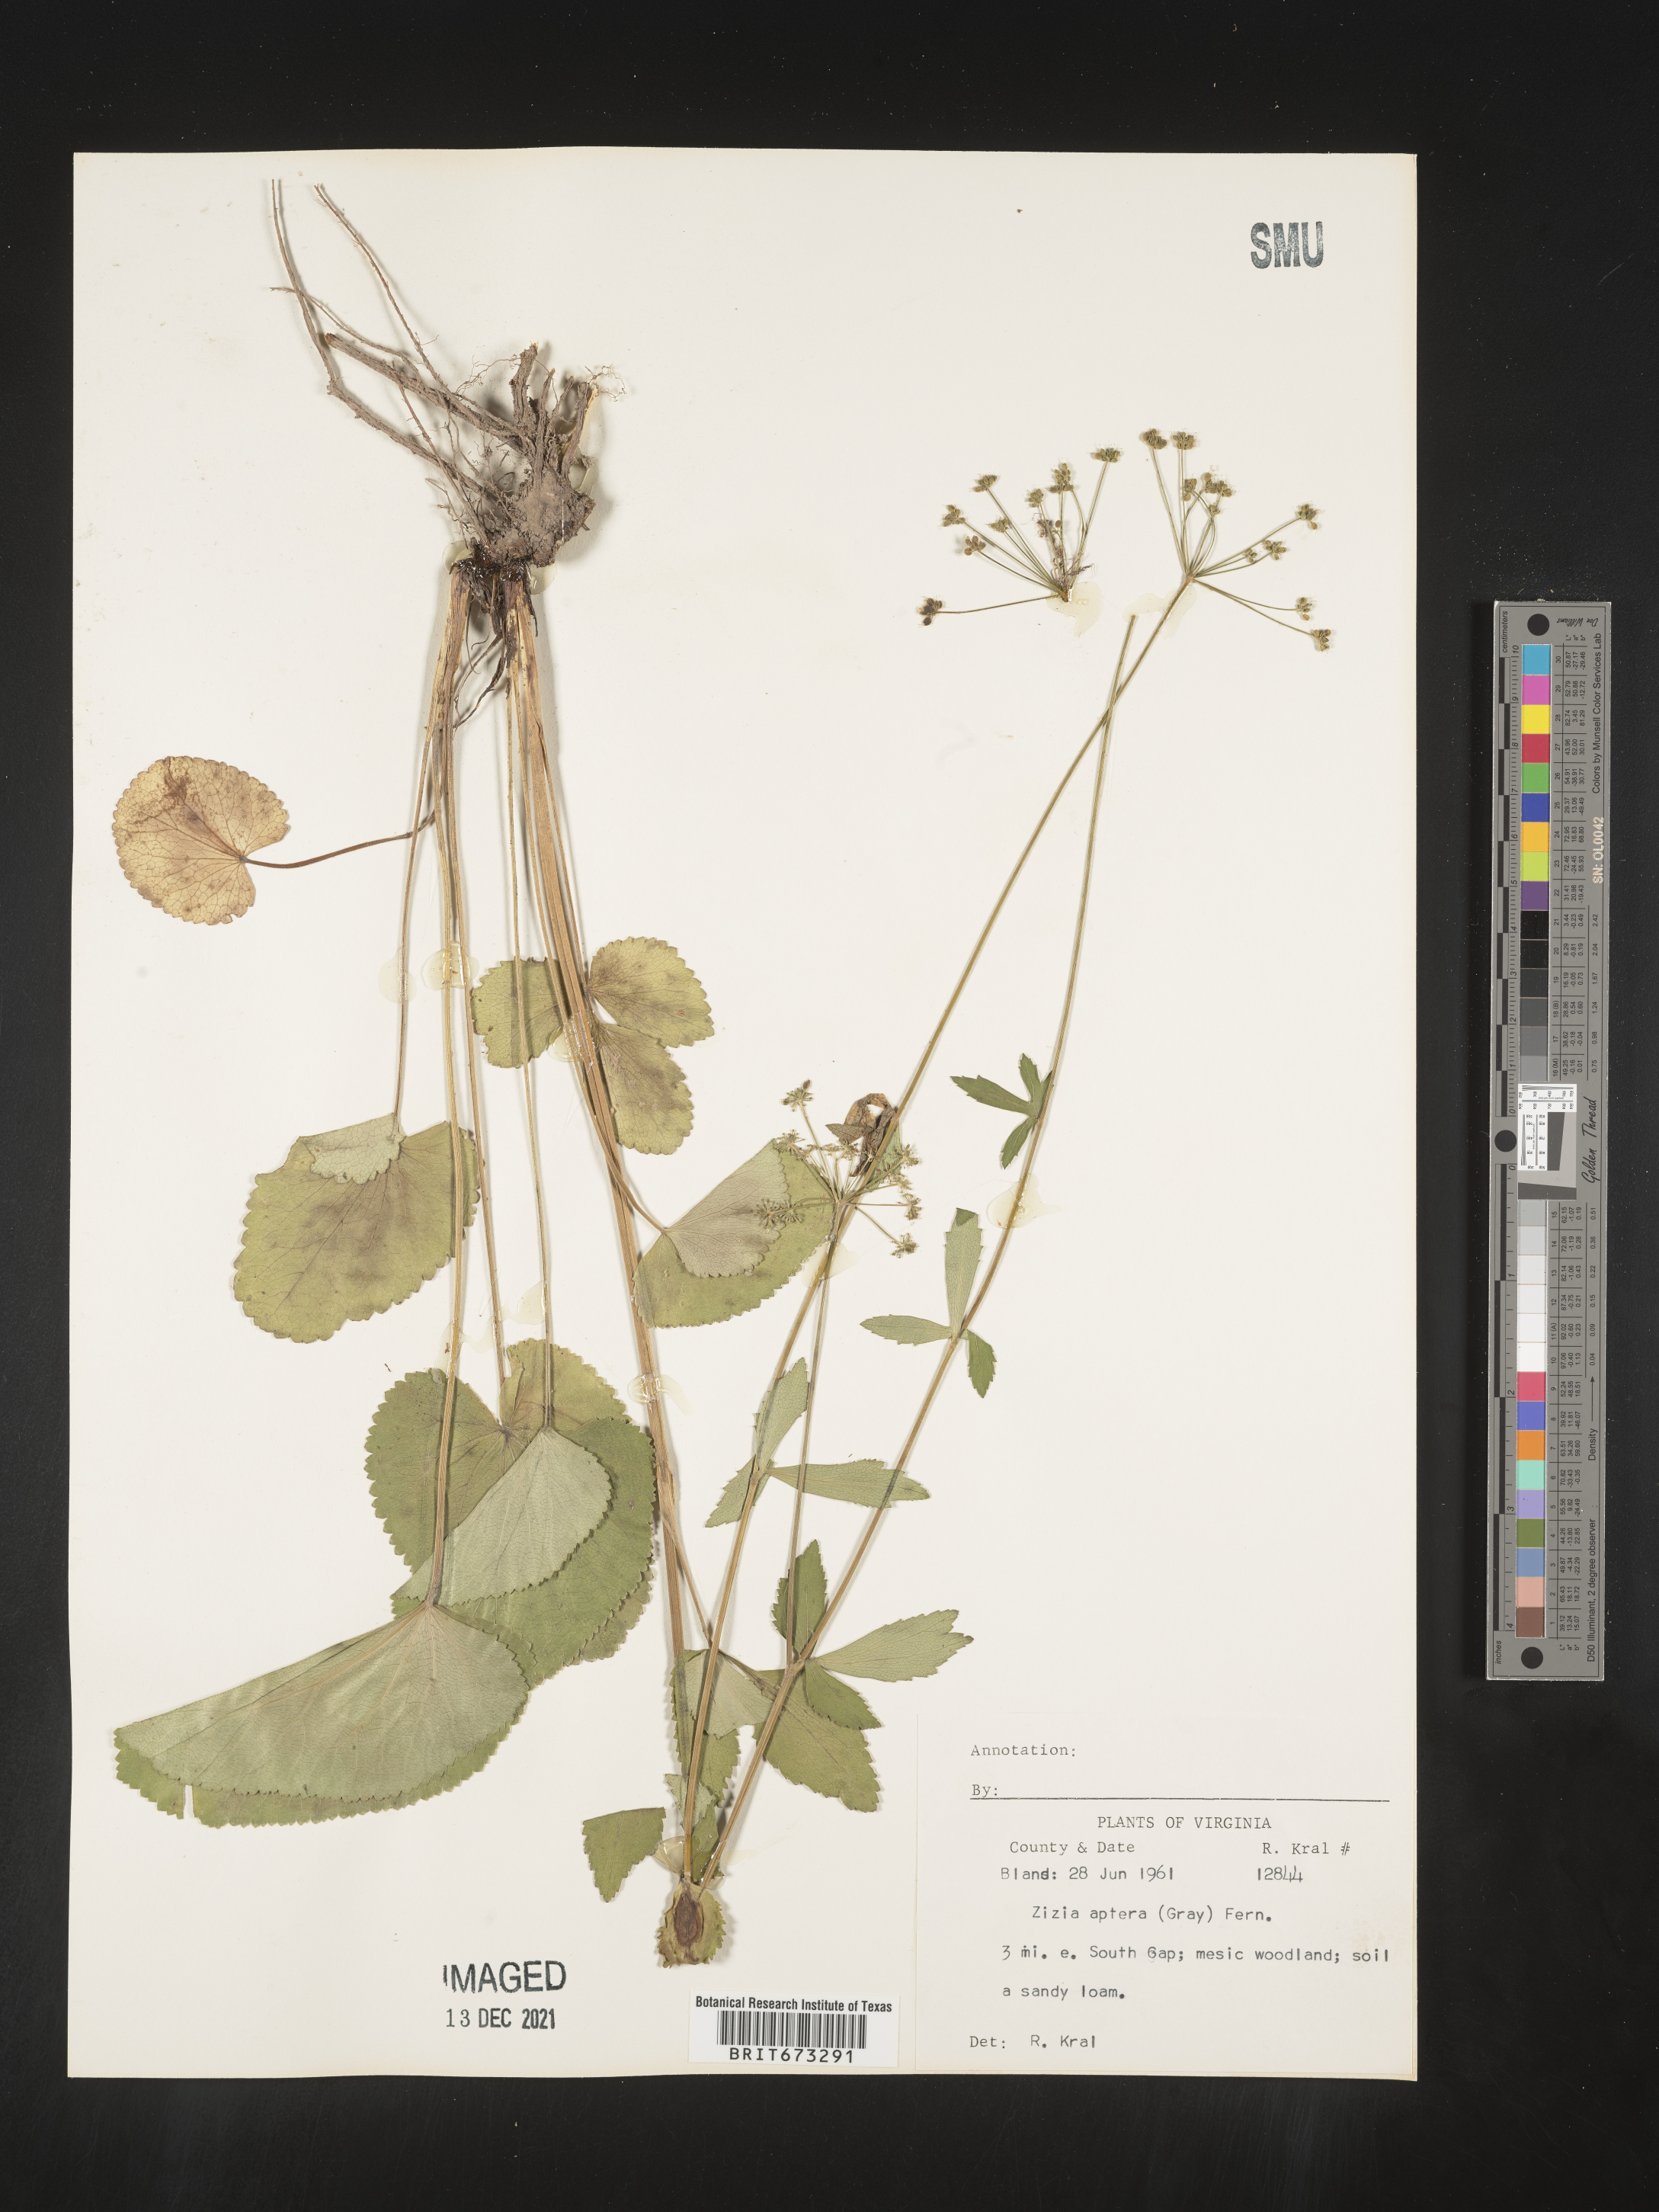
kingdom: Plantae
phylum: Tracheophyta
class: Magnoliopsida
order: Apiales
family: Apiaceae
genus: Zizia
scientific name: Zizia aptera
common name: Heart-leaved alexanders
